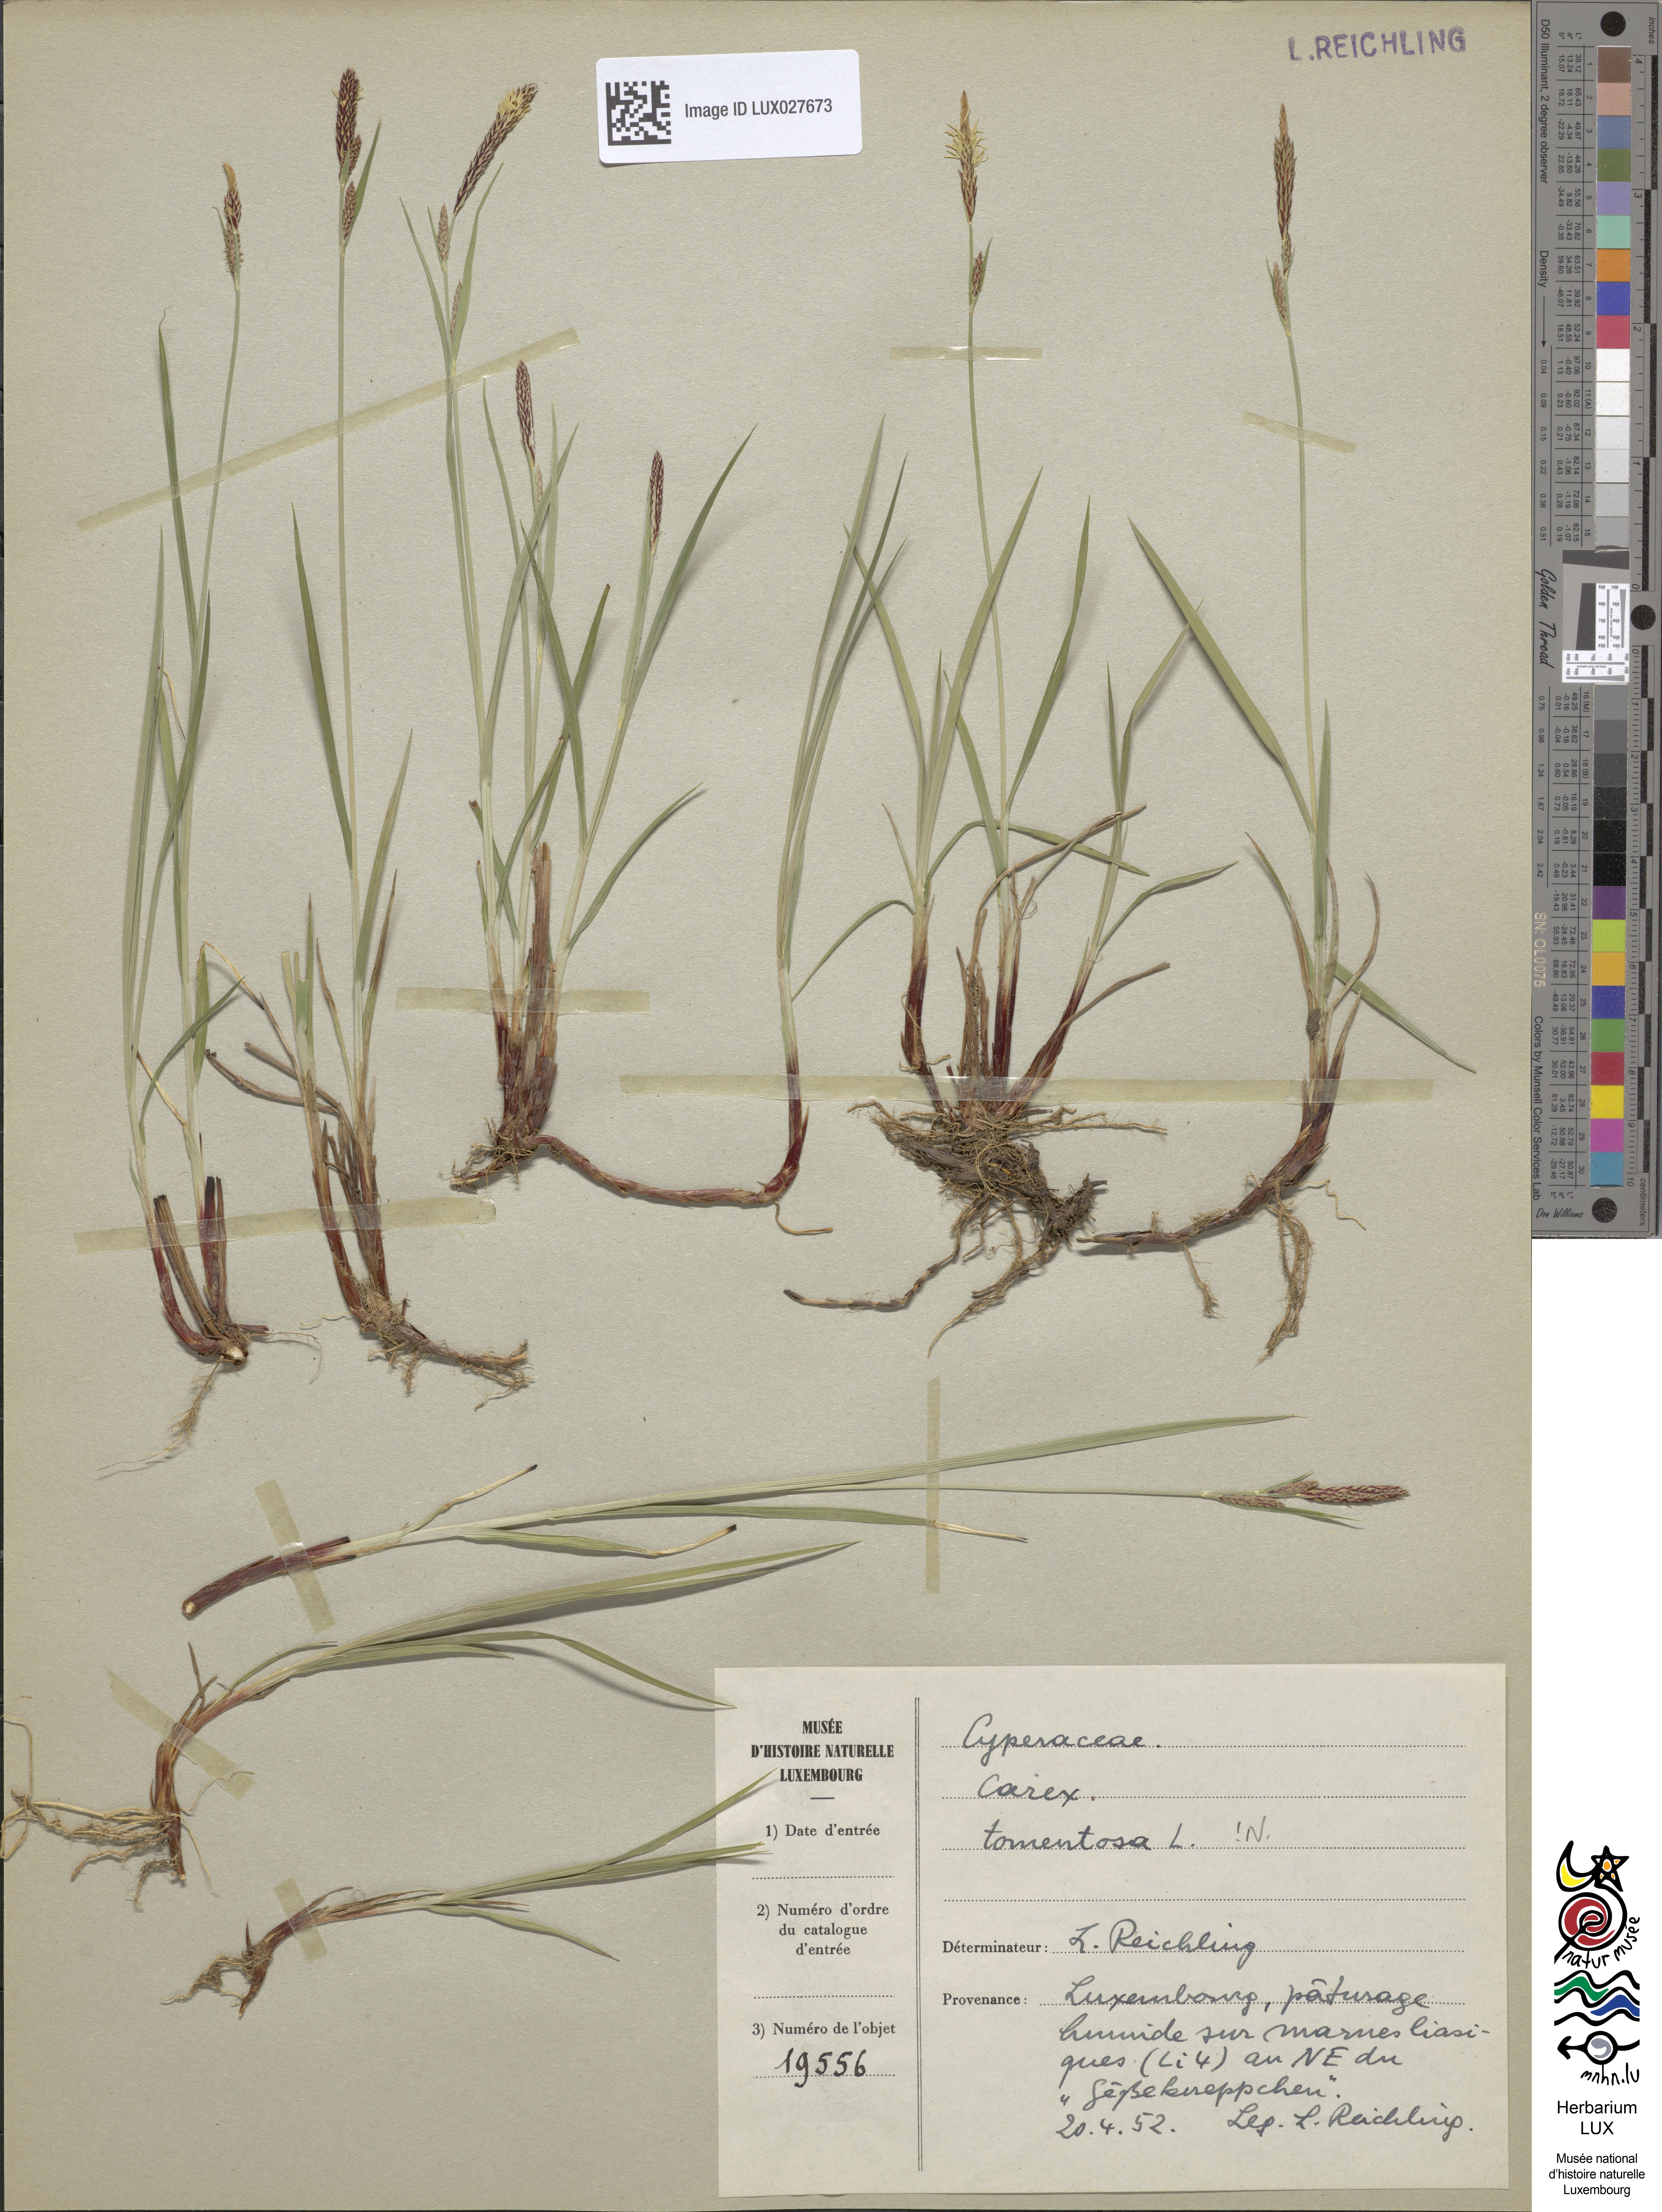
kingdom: Plantae
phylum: Tracheophyta
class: Liliopsida
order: Poales
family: Cyperaceae
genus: Carex
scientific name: Carex tomentosa
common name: Downy-fruited sedge
